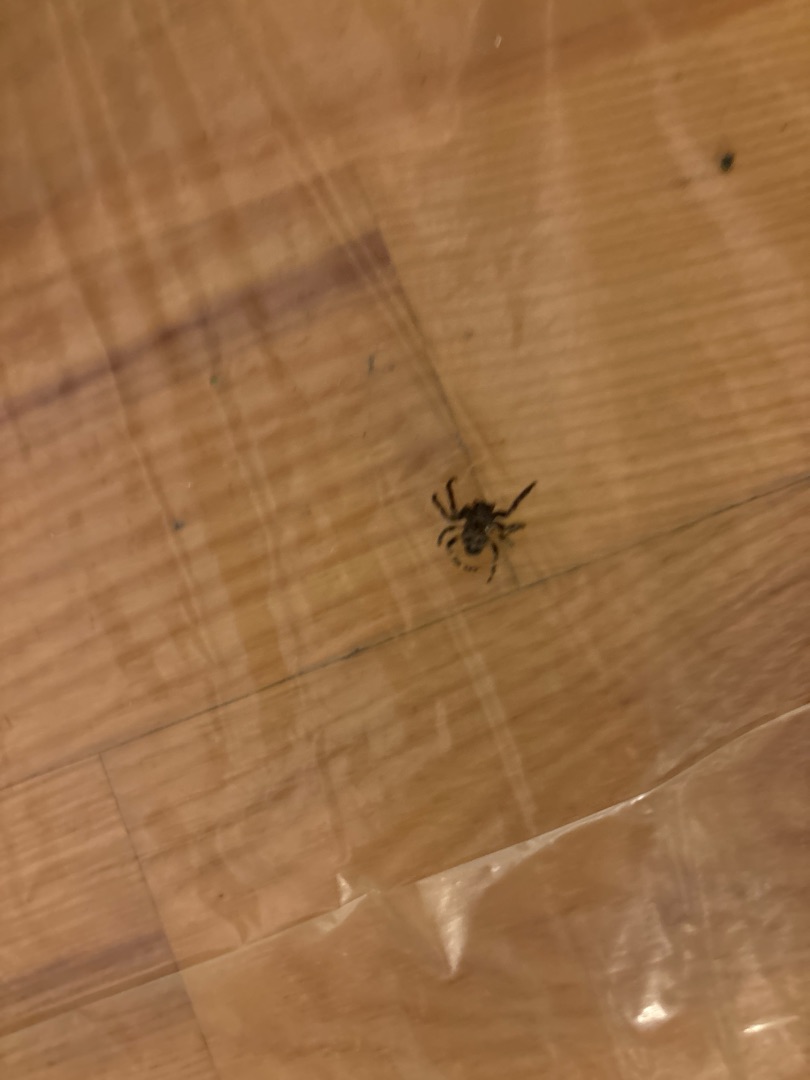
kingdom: Animalia
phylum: Arthropoda
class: Arachnida
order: Araneae
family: Araneidae
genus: Nuctenea
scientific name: Nuctenea umbratica
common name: Flad hjulspinder
